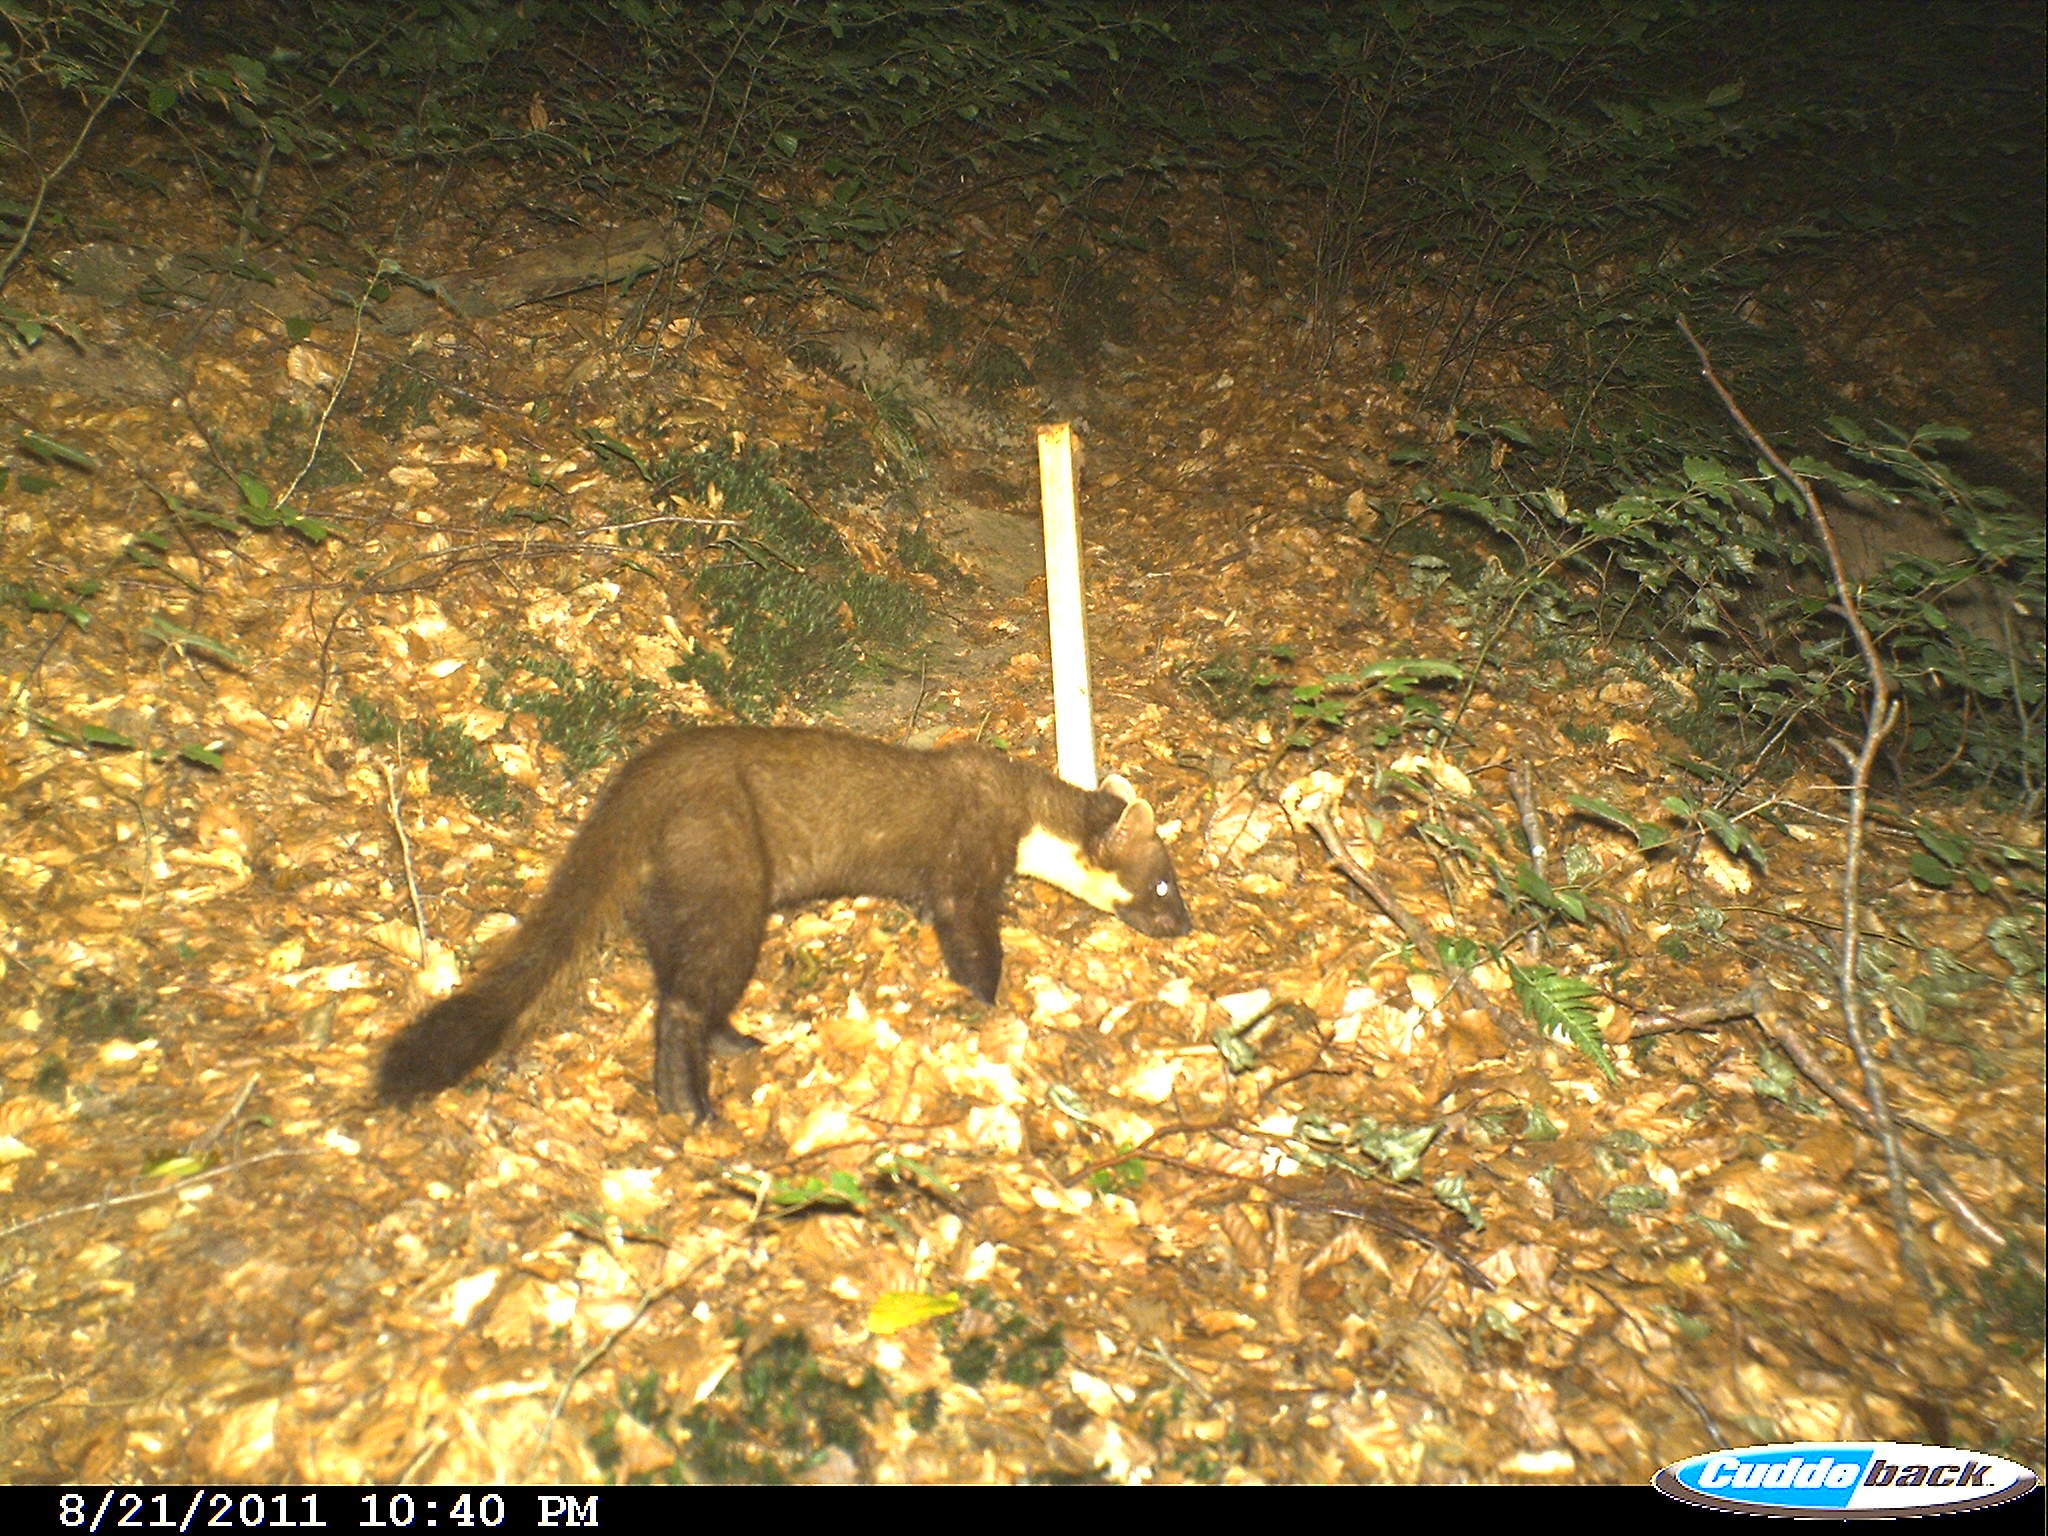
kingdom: Animalia
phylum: Chordata
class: Mammalia
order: Carnivora
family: Mustelidae
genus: Martes
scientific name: Martes martes
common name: European pine marten
